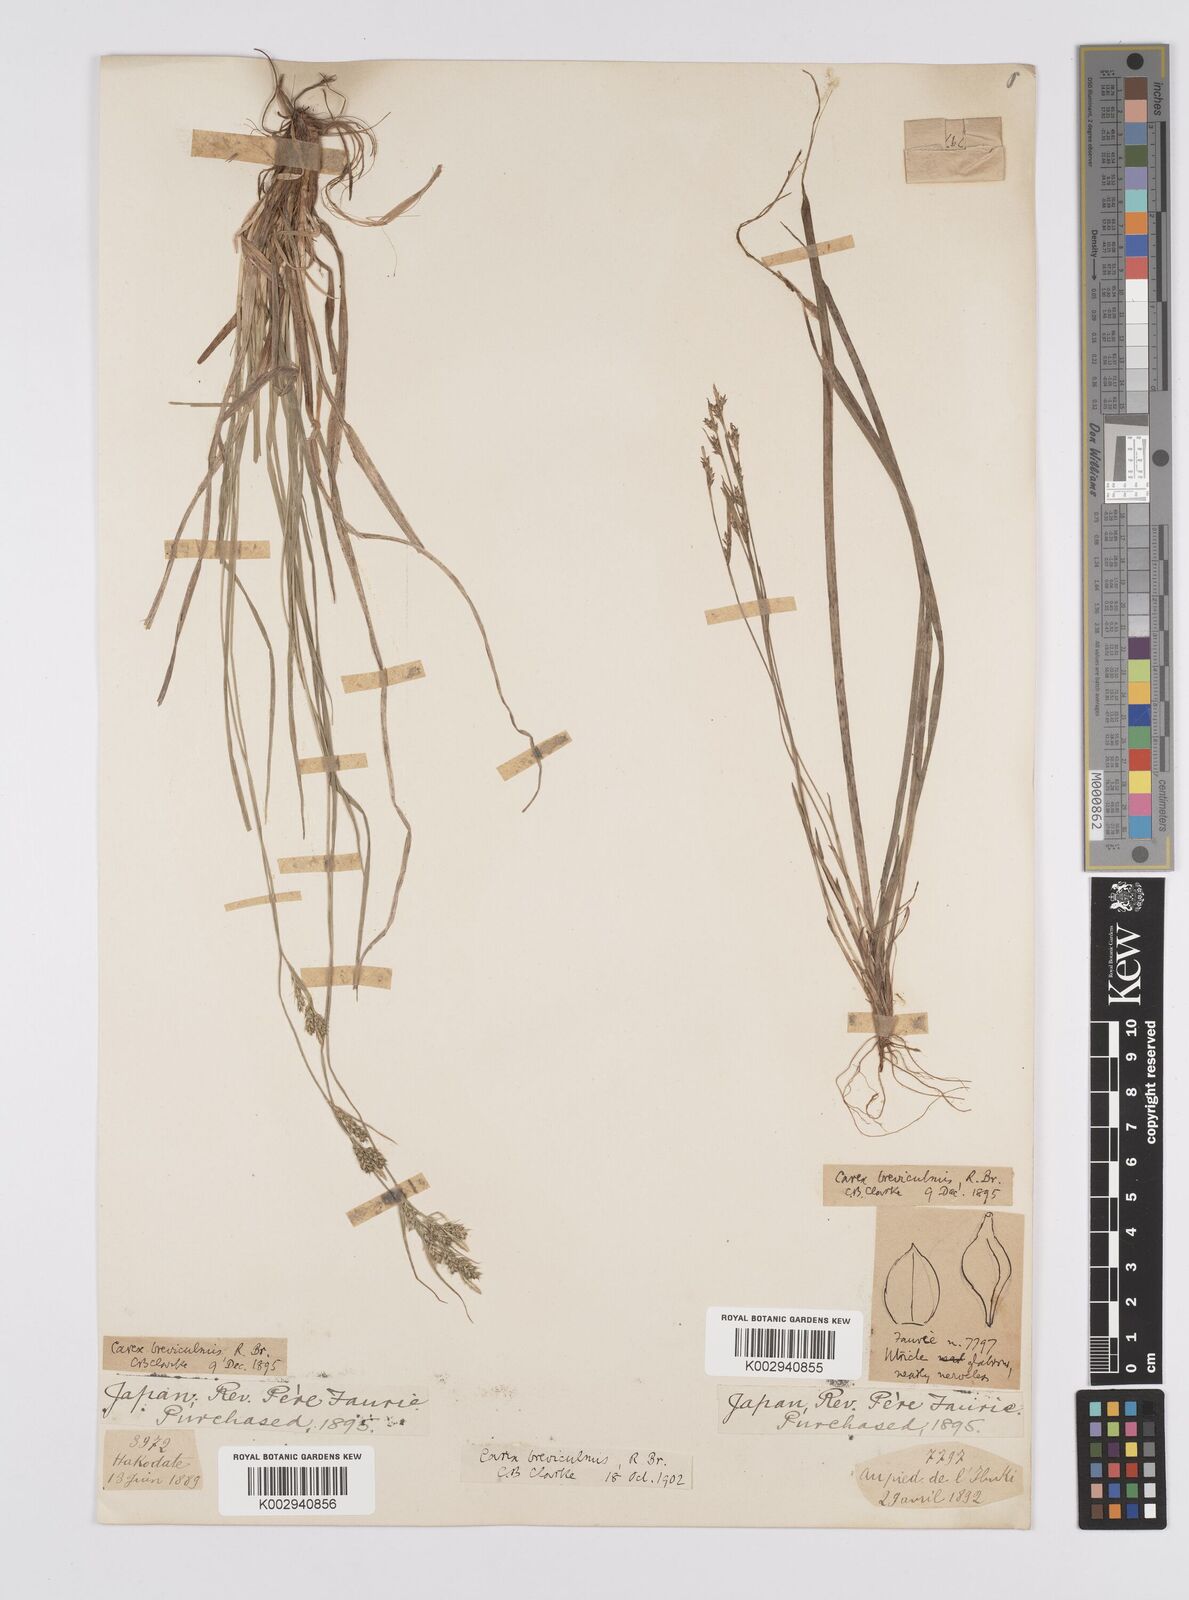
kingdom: Plantae
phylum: Tracheophyta
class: Liliopsida
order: Poales
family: Cyperaceae
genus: Carex
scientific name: Carex breviculmis
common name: Asian shortstem sedge
